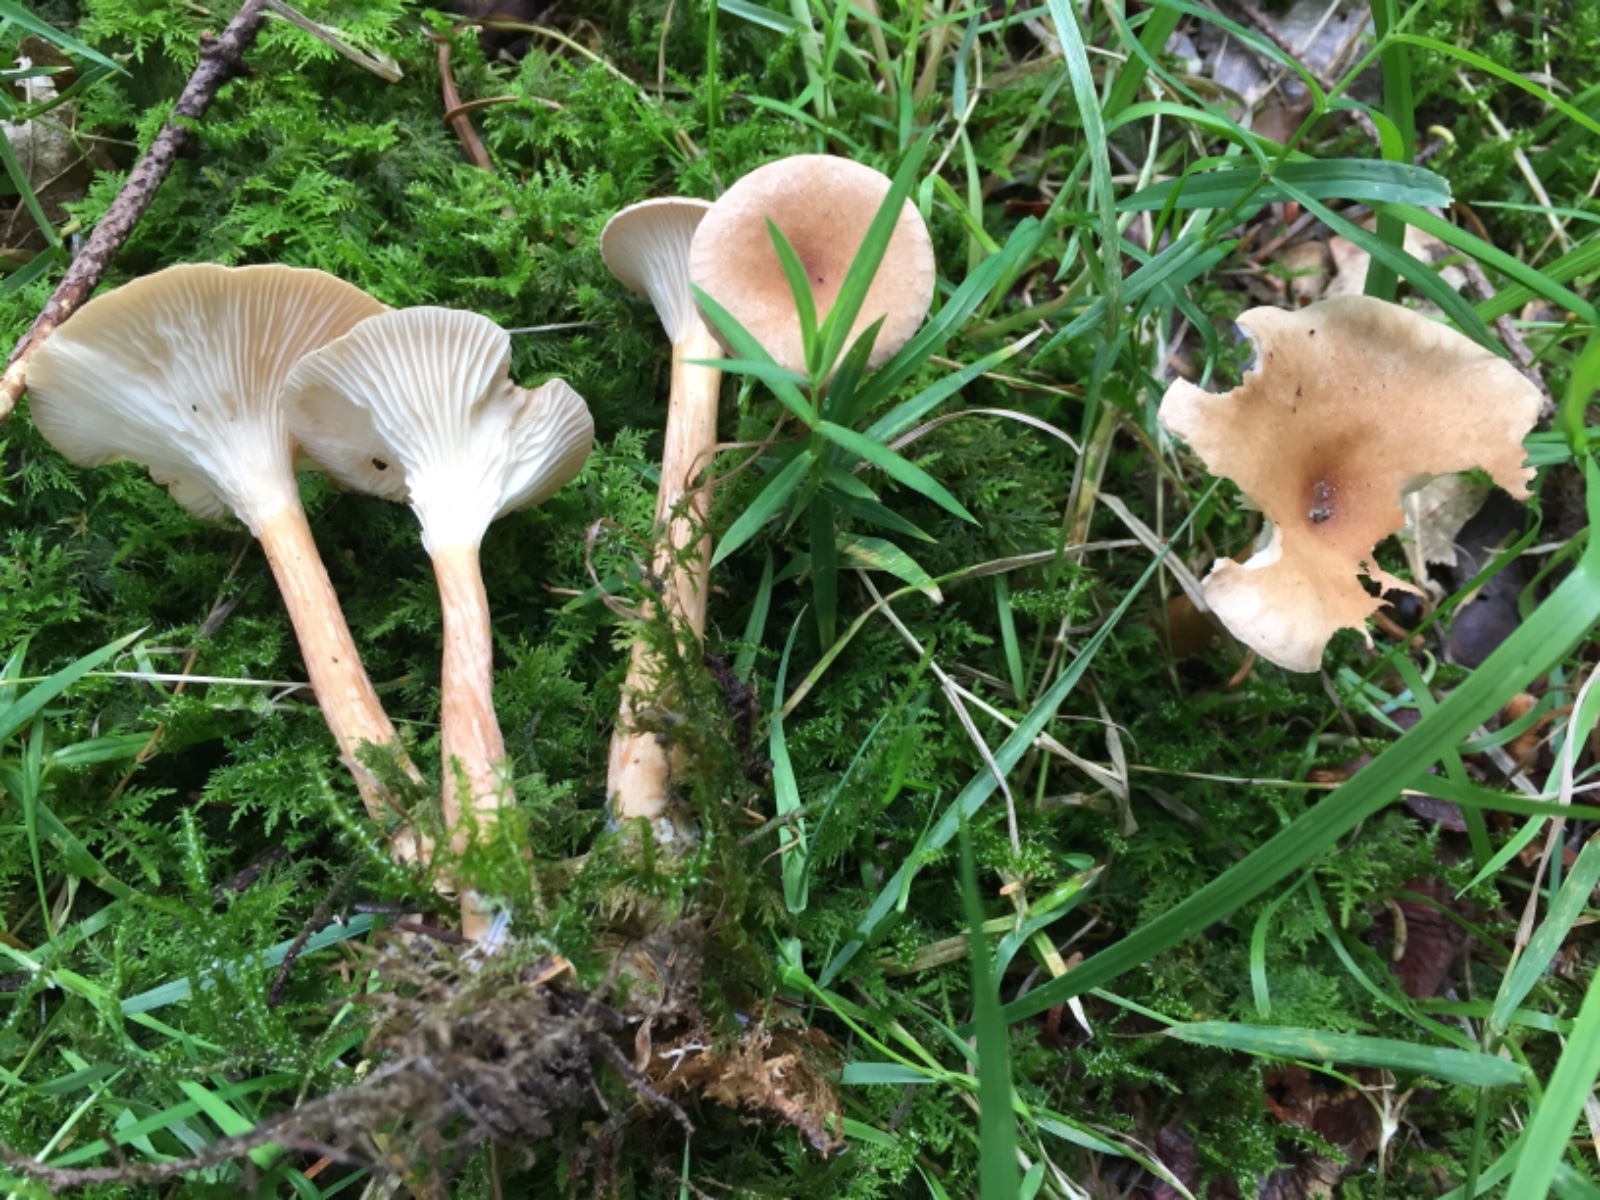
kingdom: Fungi
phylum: Basidiomycota
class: Agaricomycetes
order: Agaricales
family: Tricholomataceae
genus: Clitocybe
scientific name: Clitocybe costata
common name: brunstokket tragthat
